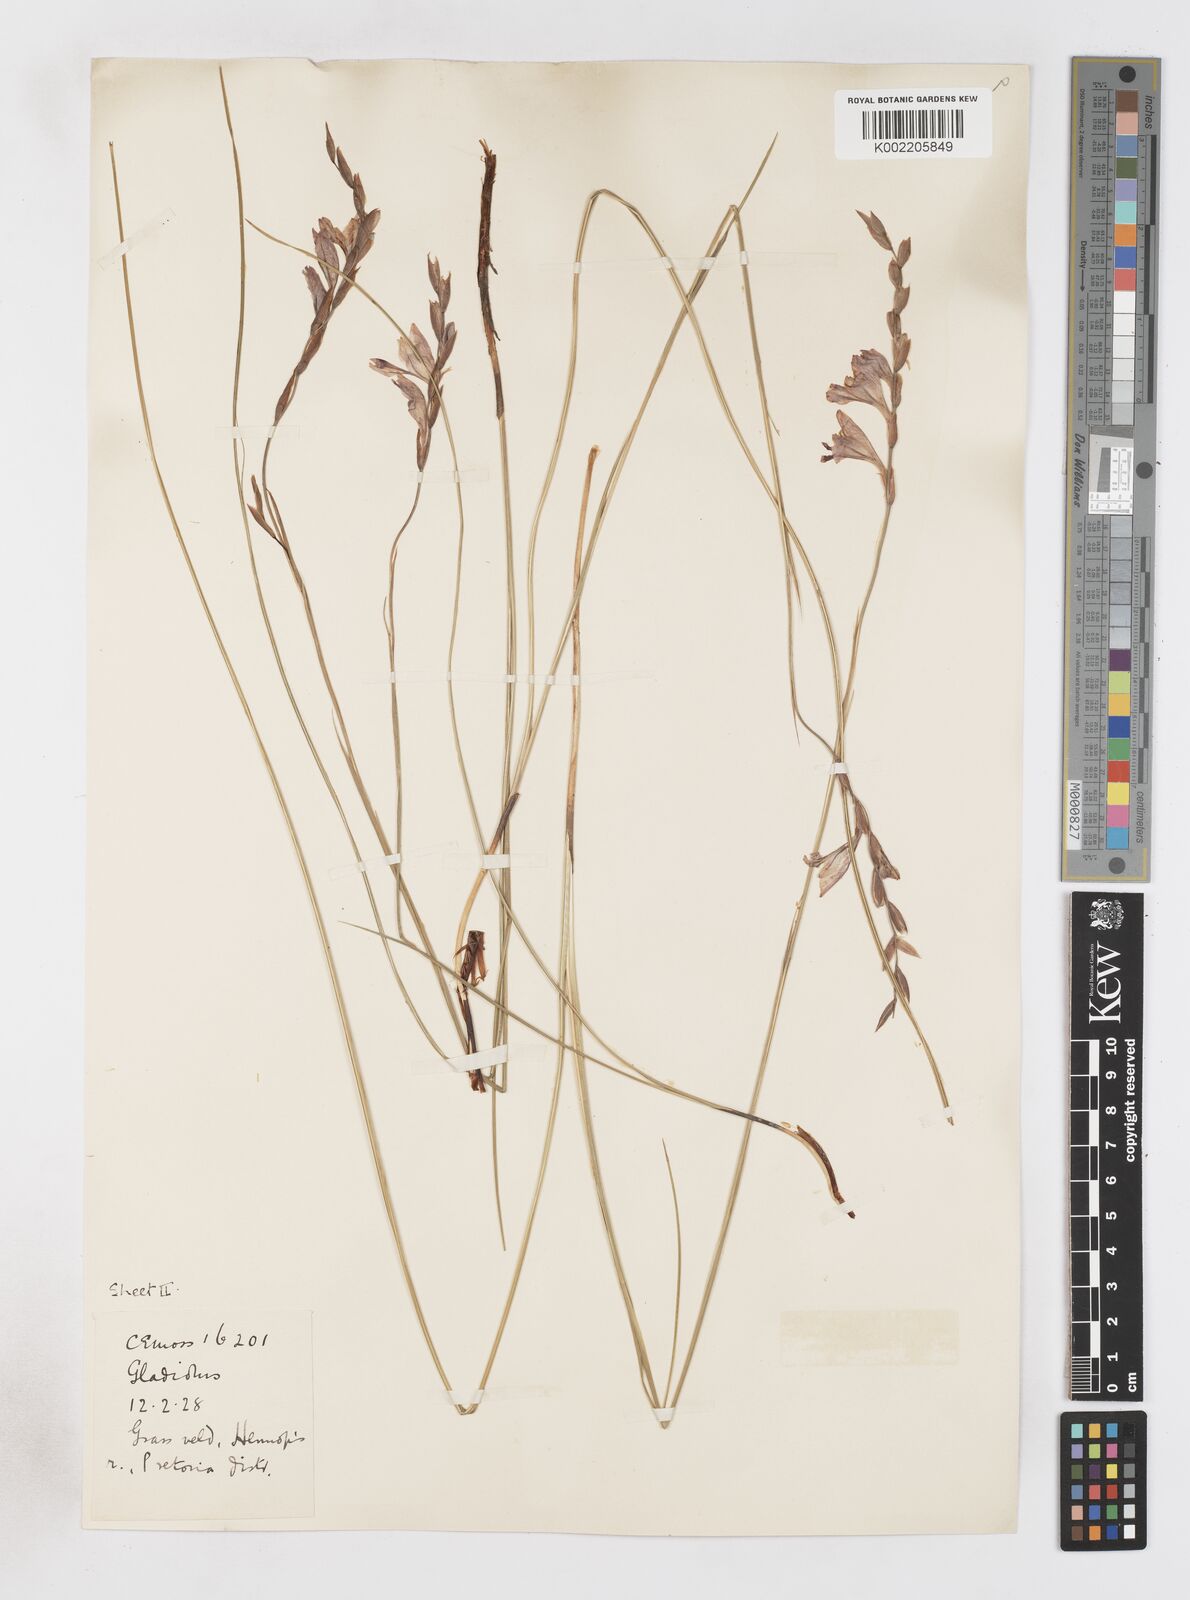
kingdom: Plantae
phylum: Tracheophyta
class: Liliopsida
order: Asparagales
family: Iridaceae
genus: Gladiolus
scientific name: Gladiolus pretoriensis
